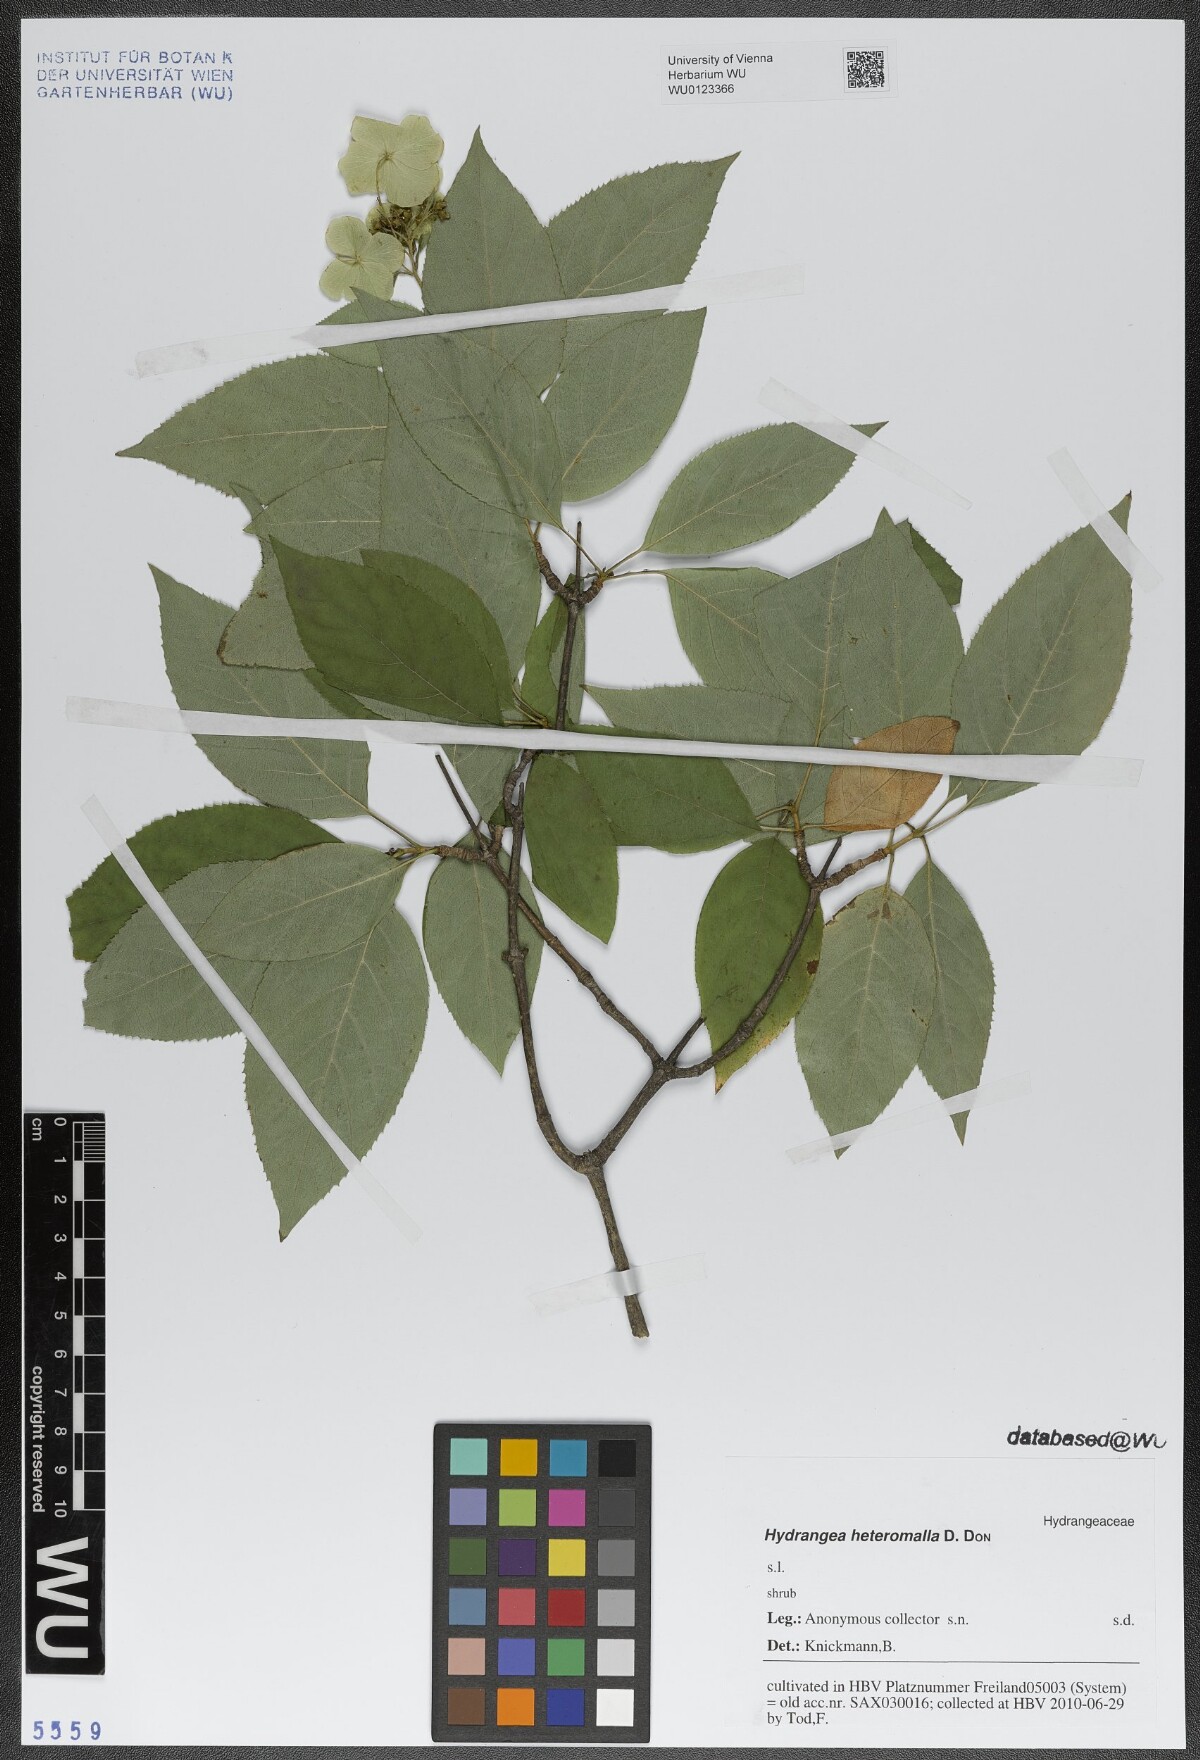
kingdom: Plantae
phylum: Tracheophyta
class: Magnoliopsida
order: Cornales
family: Hydrangeaceae
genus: Hydrangea
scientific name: Hydrangea heteromalla
